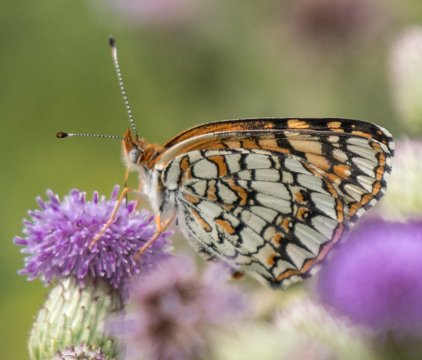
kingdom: Animalia
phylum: Arthropoda
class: Insecta
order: Lepidoptera
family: Nymphalidae
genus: Chlosyne
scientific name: Chlosyne acastus
